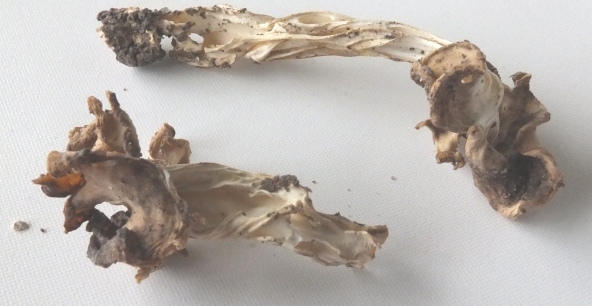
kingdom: Fungi
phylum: Ascomycota
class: Pezizomycetes
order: Pezizales
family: Helvellaceae
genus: Helvella
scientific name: Helvella crispa
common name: kruset foldhat
